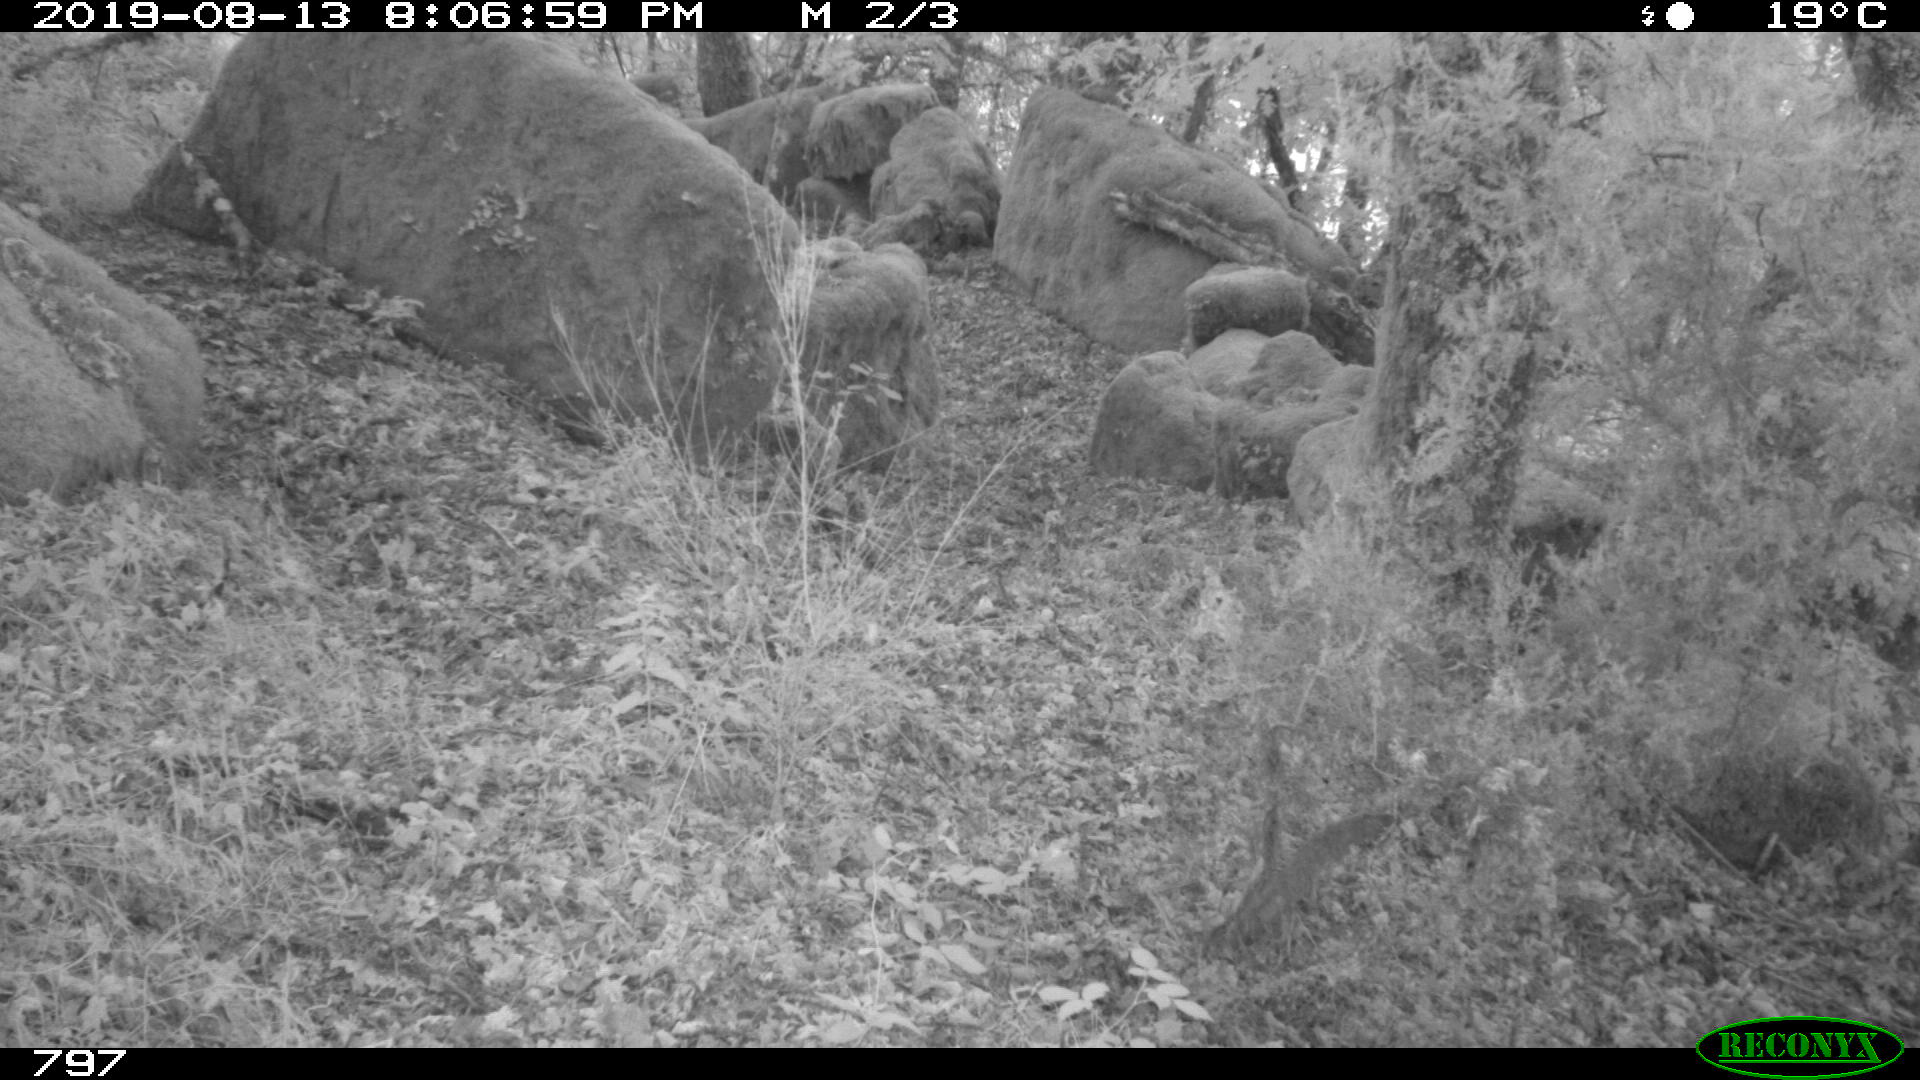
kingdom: Animalia
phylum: Chordata
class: Mammalia
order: Artiodactyla
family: Suidae
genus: Sus
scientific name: Sus scrofa
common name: Wild boar
